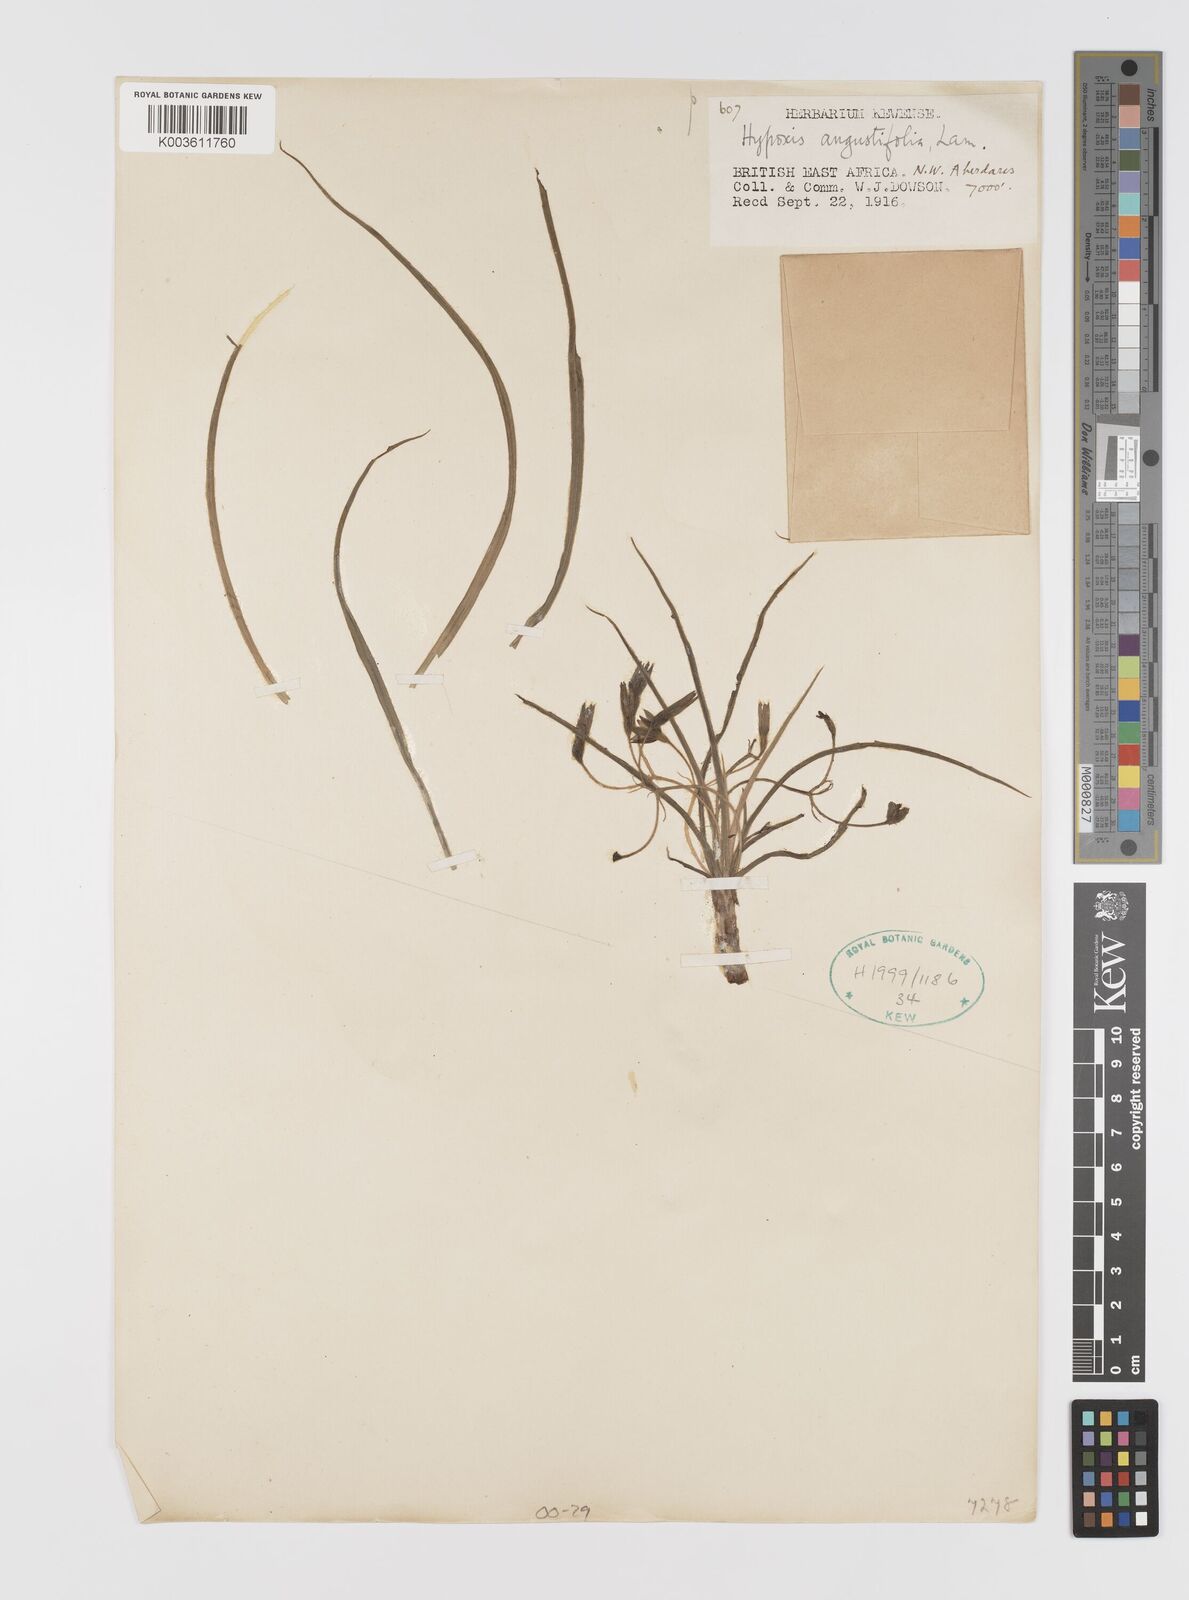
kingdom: Plantae
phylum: Tracheophyta
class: Liliopsida
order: Asparagales
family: Hypoxidaceae
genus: Hypoxis
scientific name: Hypoxis angustifolia
